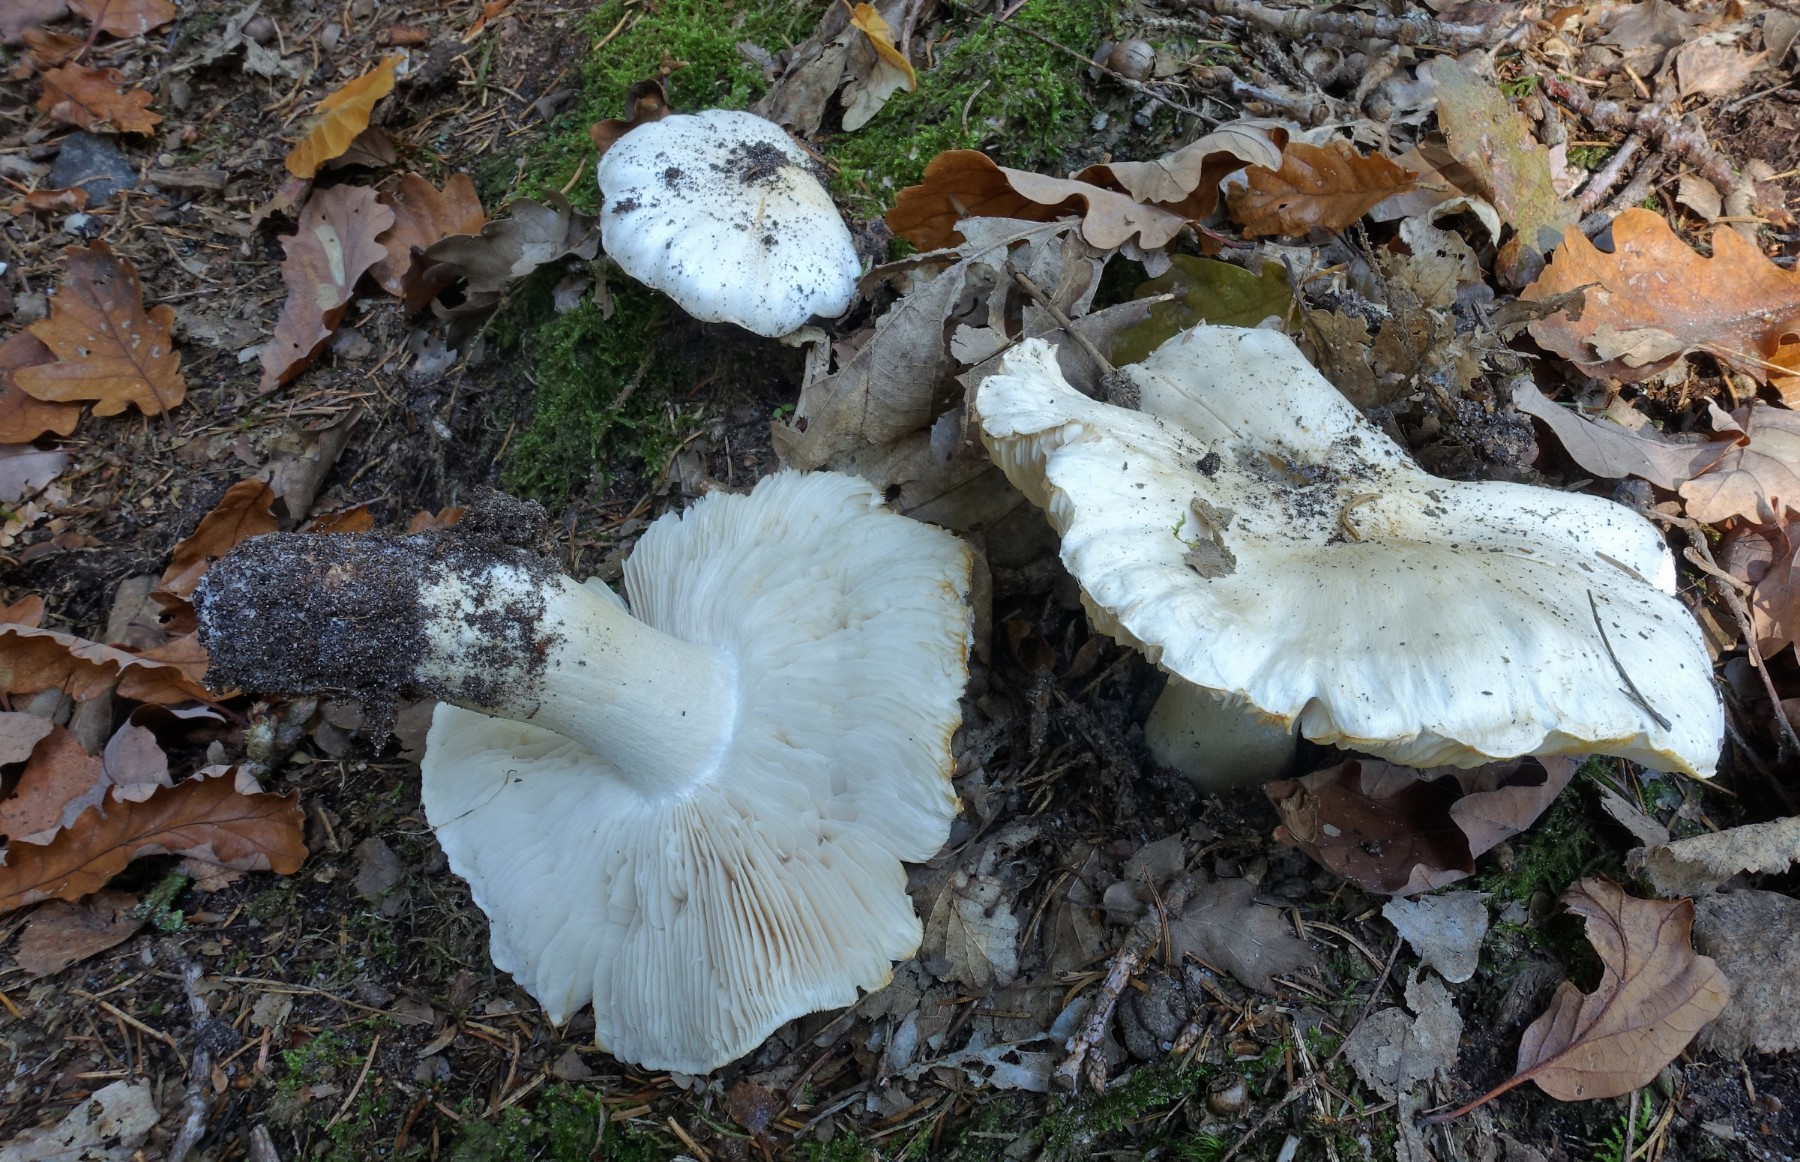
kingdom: Fungi
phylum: Basidiomycota
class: Agaricomycetes
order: Agaricales
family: Tricholomataceae
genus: Tricholoma
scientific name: Tricholoma columbetta
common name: silke-ridderhat
